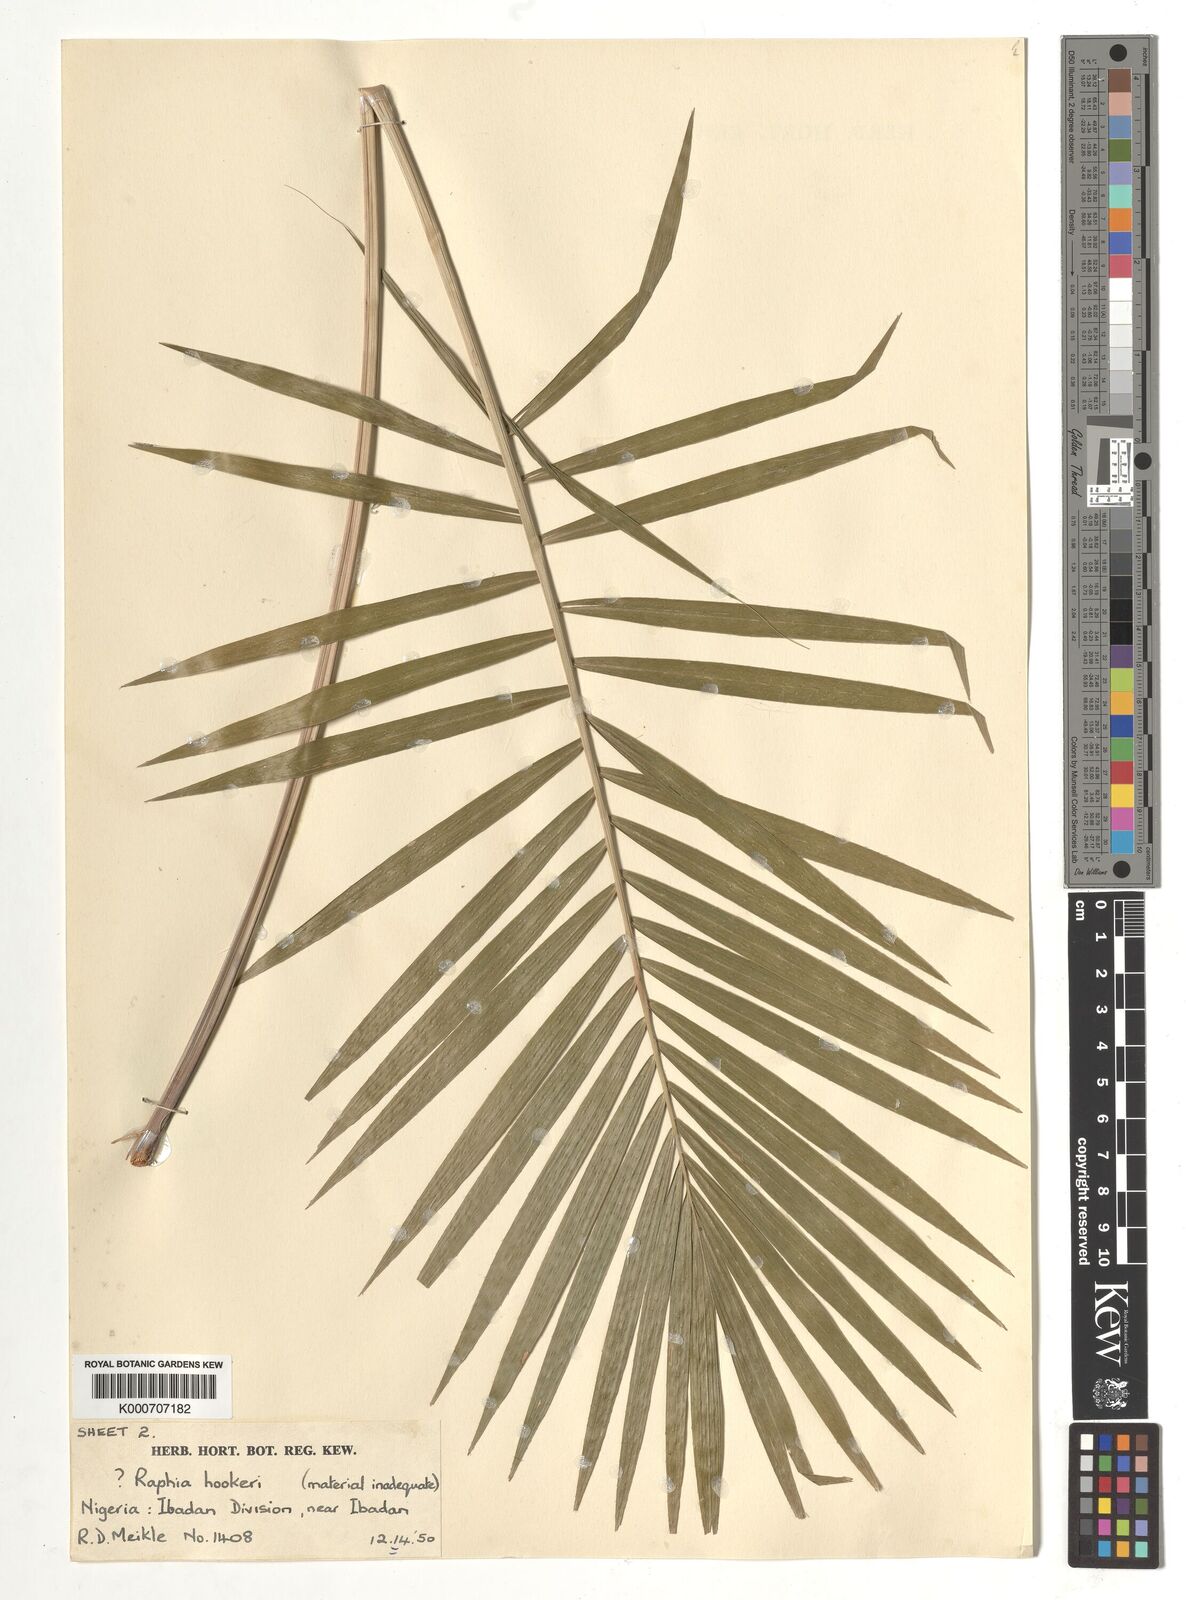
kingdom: Plantae
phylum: Tracheophyta
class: Liliopsida
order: Arecales
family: Arecaceae
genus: Raphia
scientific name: Raphia
